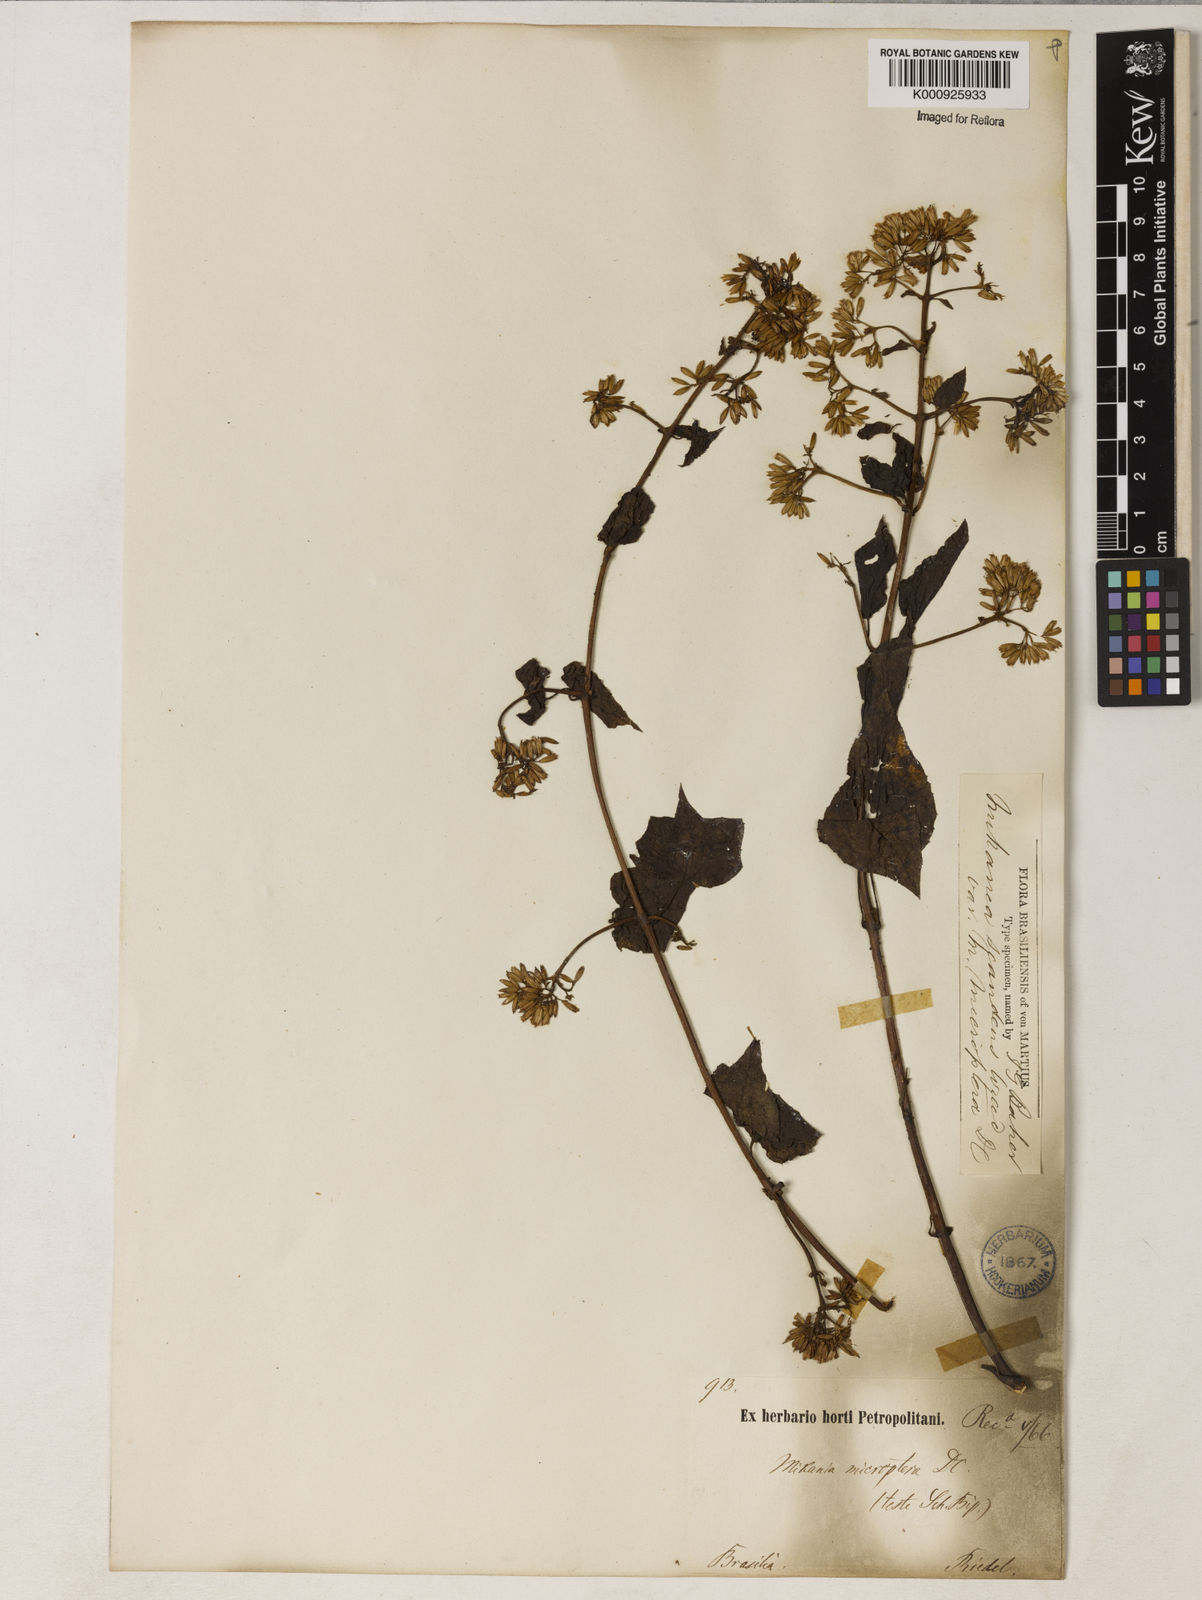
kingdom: Plantae
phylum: Tracheophyta
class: Magnoliopsida
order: Asterales
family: Asteraceae
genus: Mikania
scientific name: Mikania microptera
